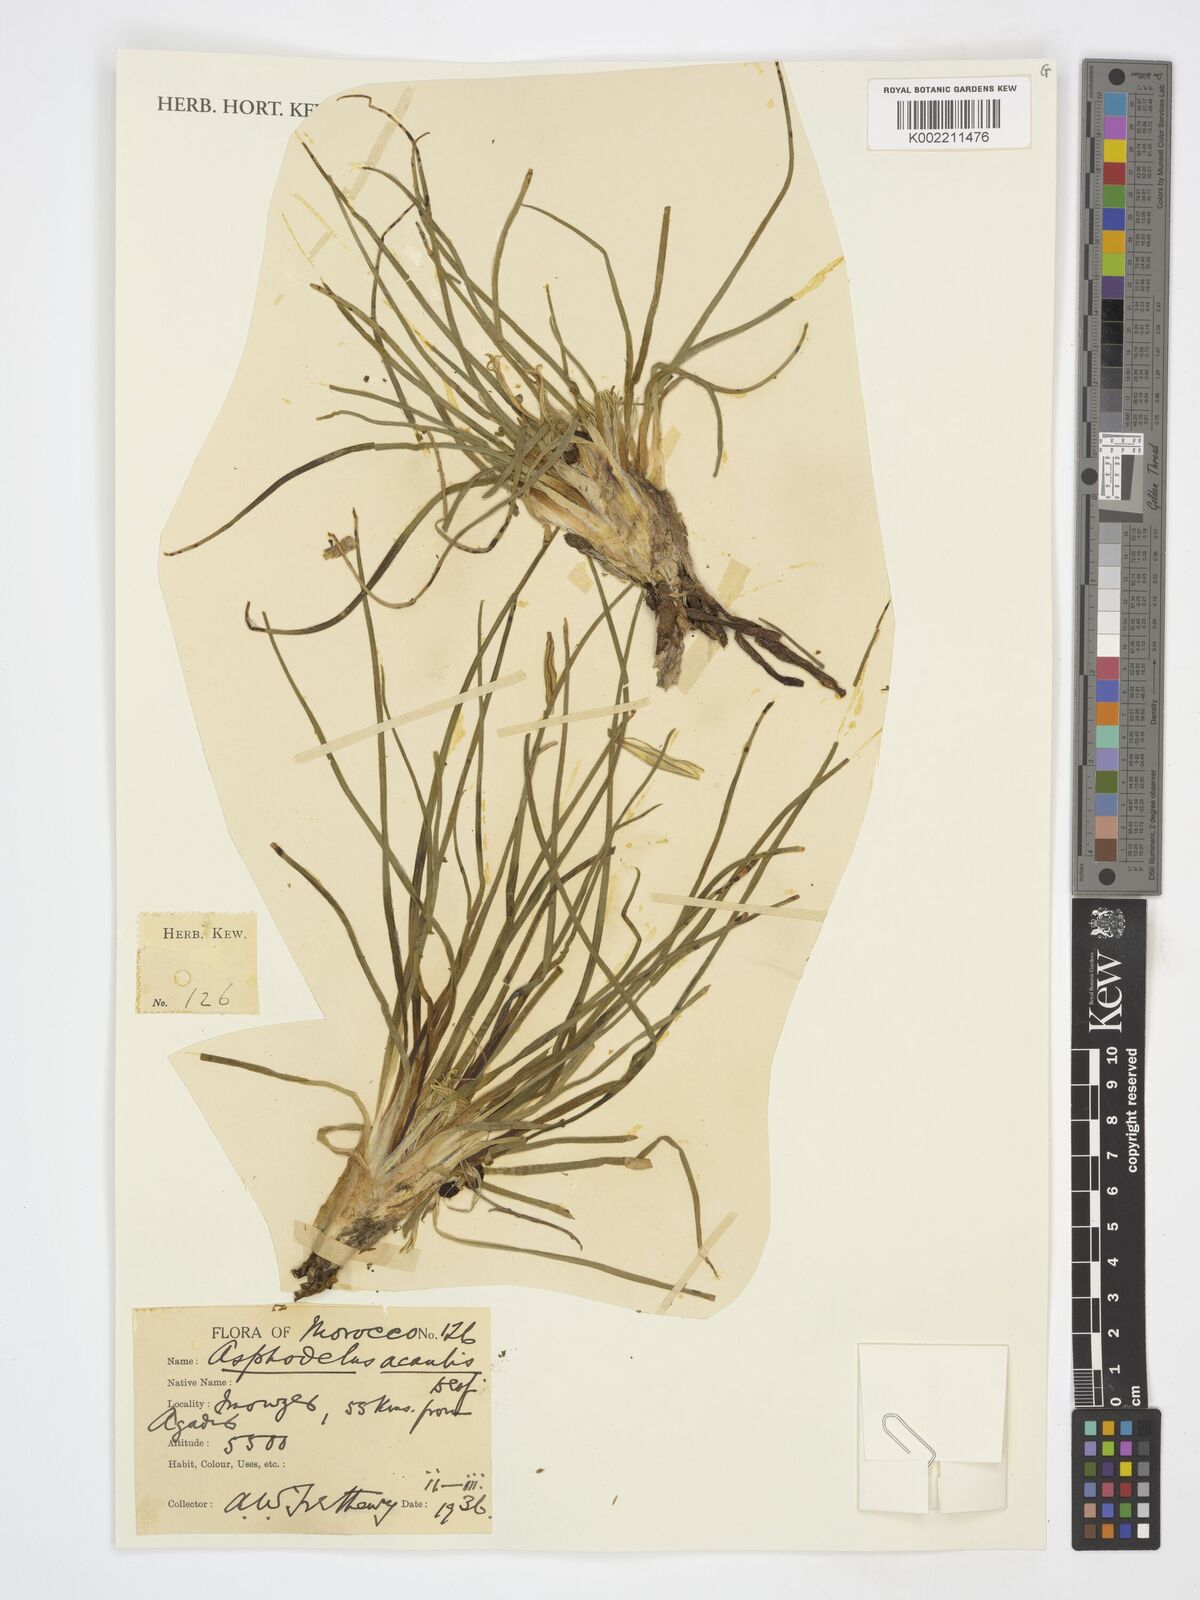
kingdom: Plantae
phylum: Tracheophyta
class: Liliopsida
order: Asparagales
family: Asphodelaceae
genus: Asphodelus
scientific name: Asphodelus acaulis
